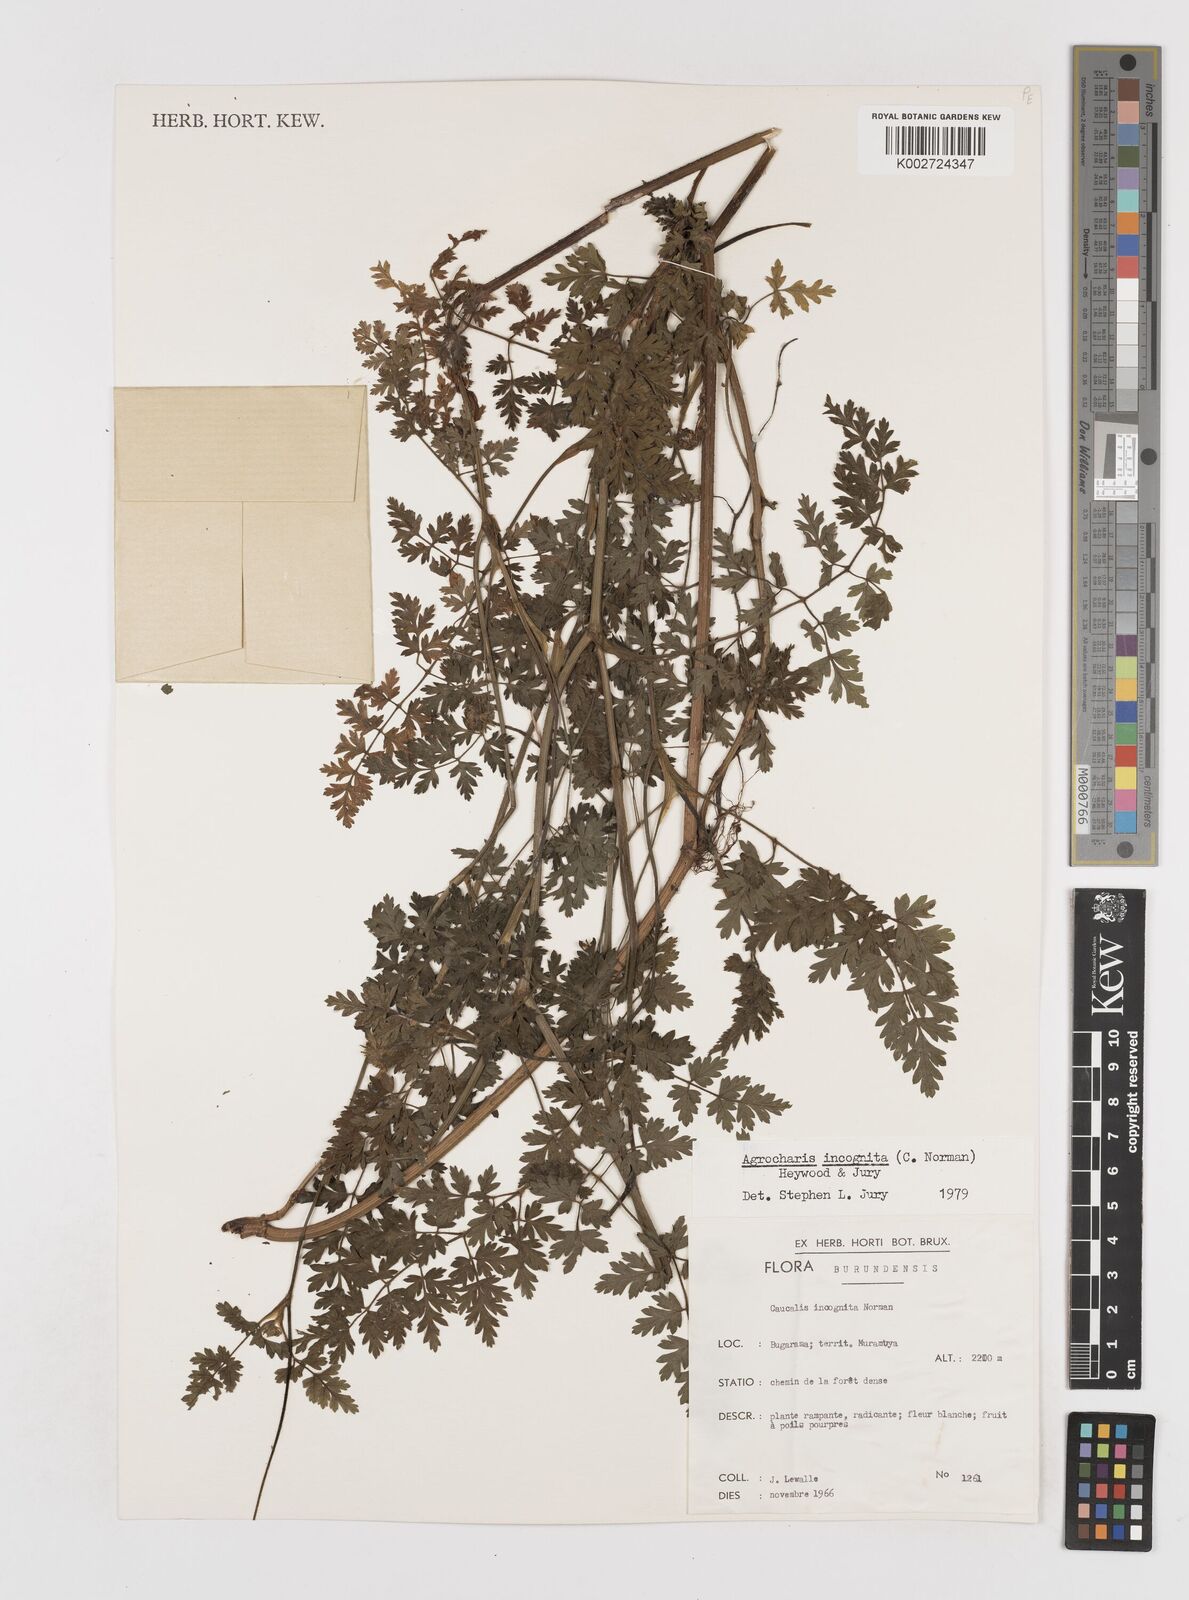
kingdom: Plantae
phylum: Tracheophyta
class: Magnoliopsida
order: Apiales
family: Apiaceae
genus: Daucus
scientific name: Daucus incognitus
